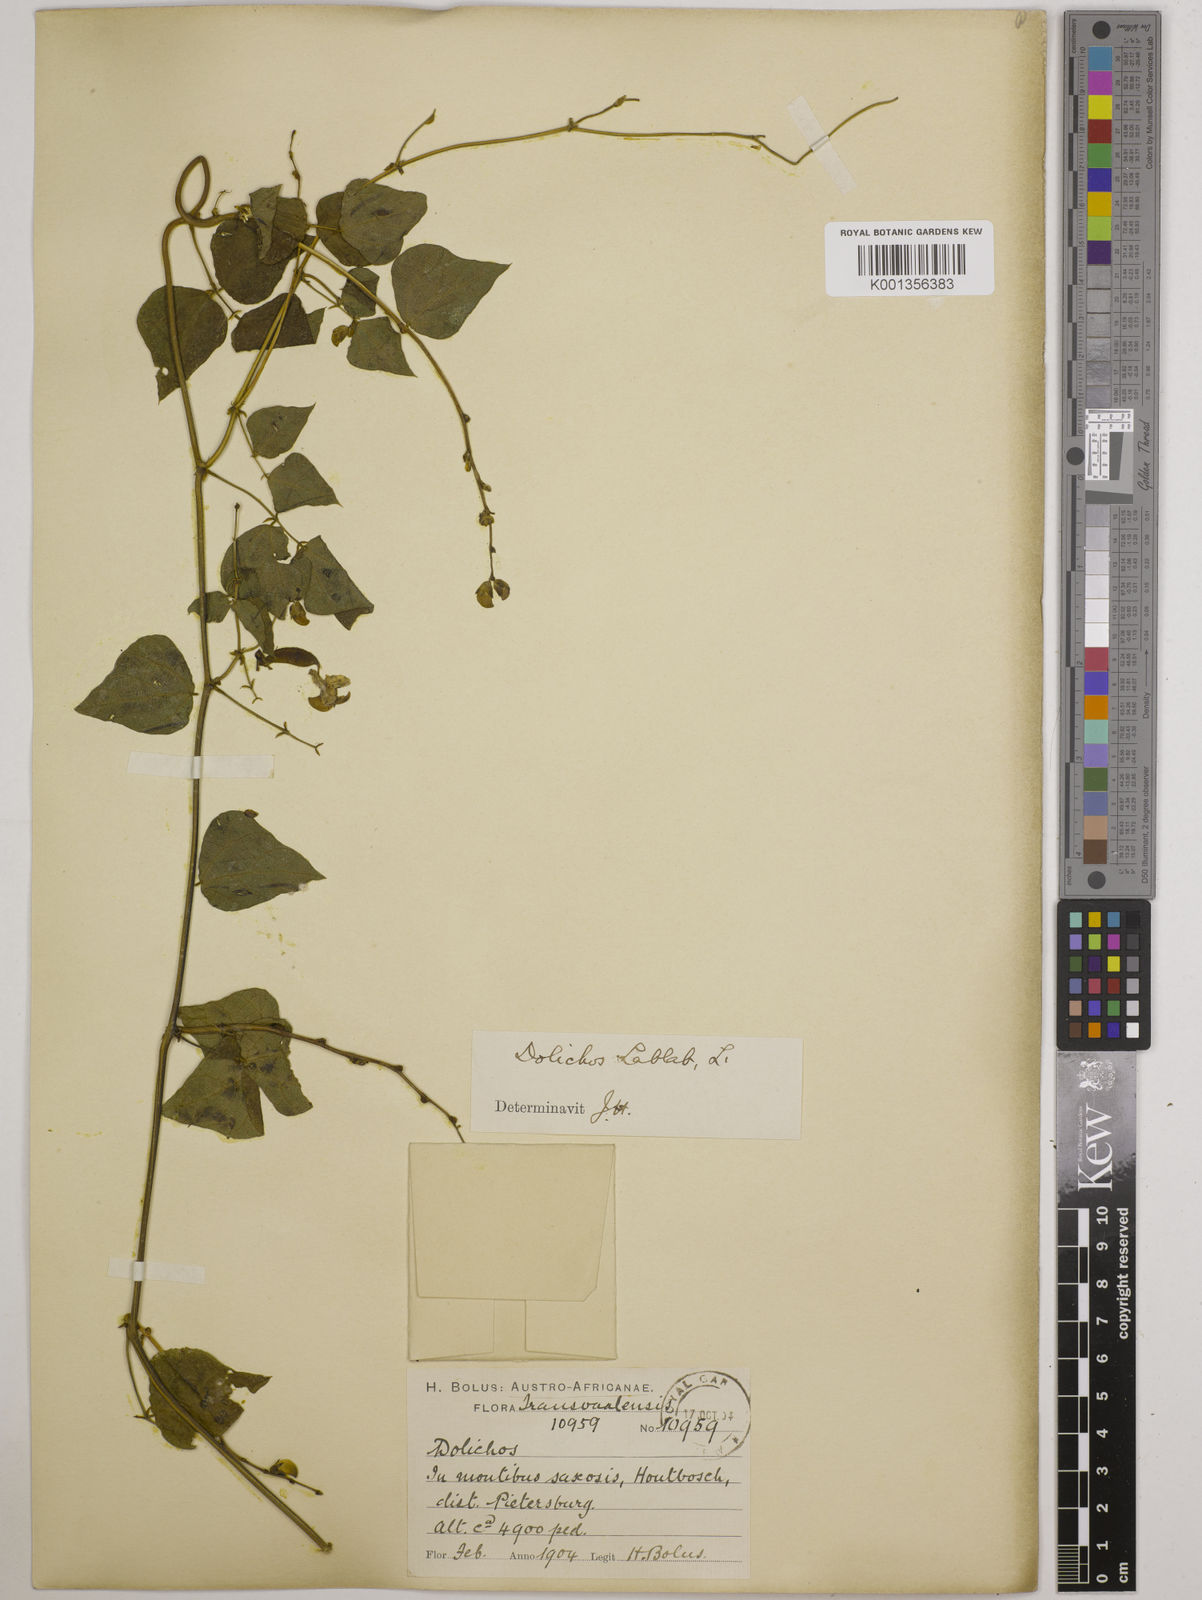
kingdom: Plantae
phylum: Tracheophyta
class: Magnoliopsida
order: Fabales
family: Fabaceae
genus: Lablab
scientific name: Lablab purpureus
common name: Lablab-bean
